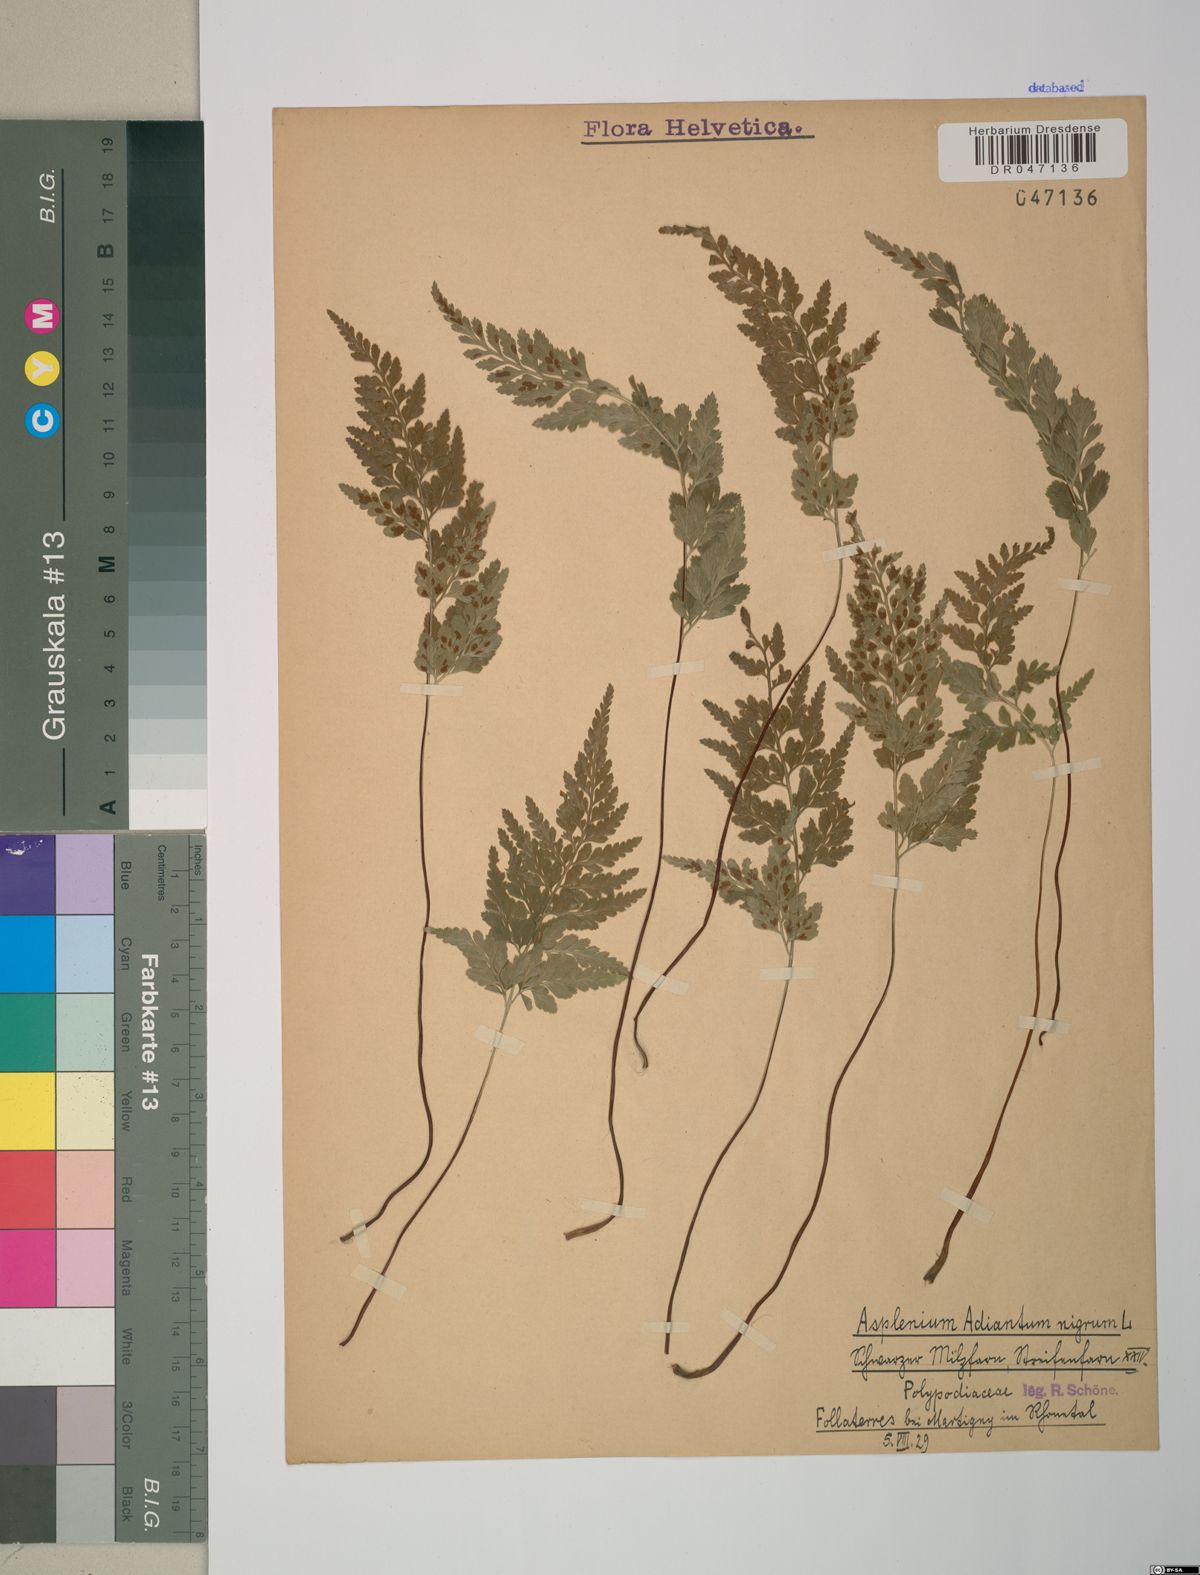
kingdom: Plantae
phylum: Tracheophyta
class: Polypodiopsida
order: Polypodiales
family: Aspleniaceae
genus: Asplenium
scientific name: Asplenium adiantum-nigrum
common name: Black spleenwort
